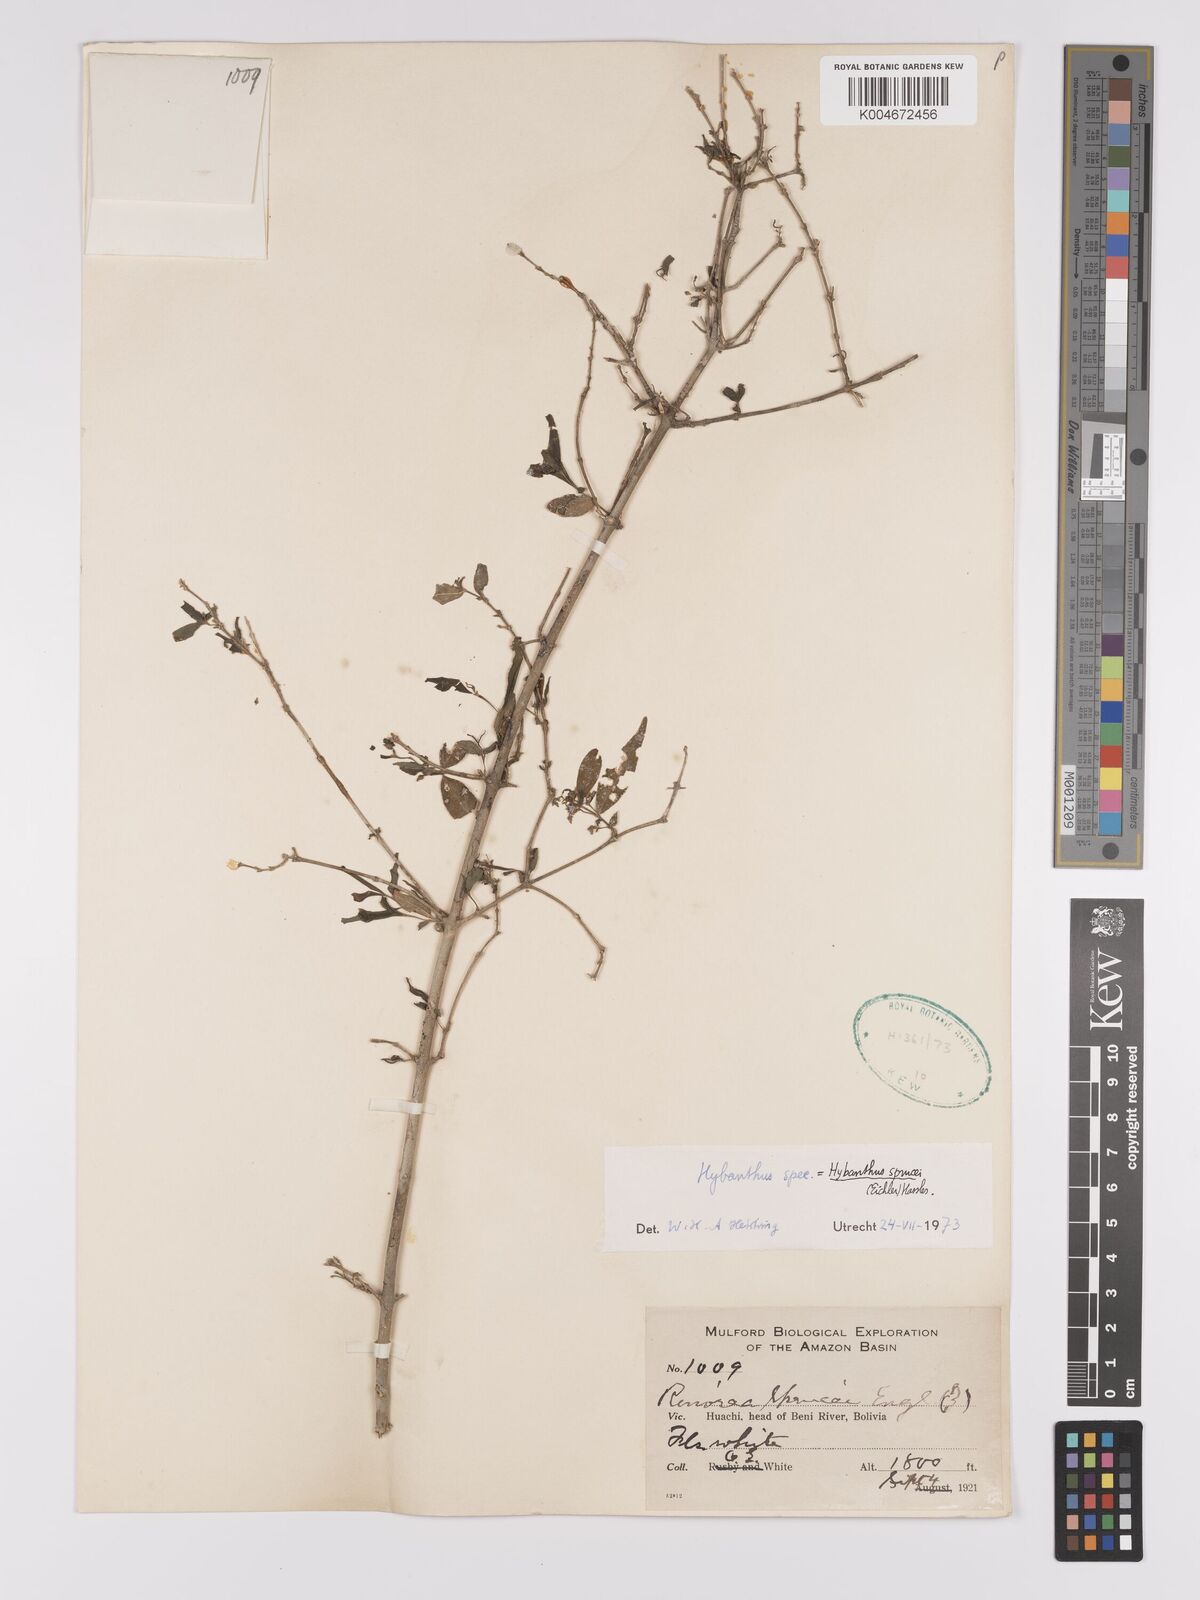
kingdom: Plantae
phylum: Tracheophyta
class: Magnoliopsida
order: Malpighiales
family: Violaceae
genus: Pombalia
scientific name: Pombalia sprucei
